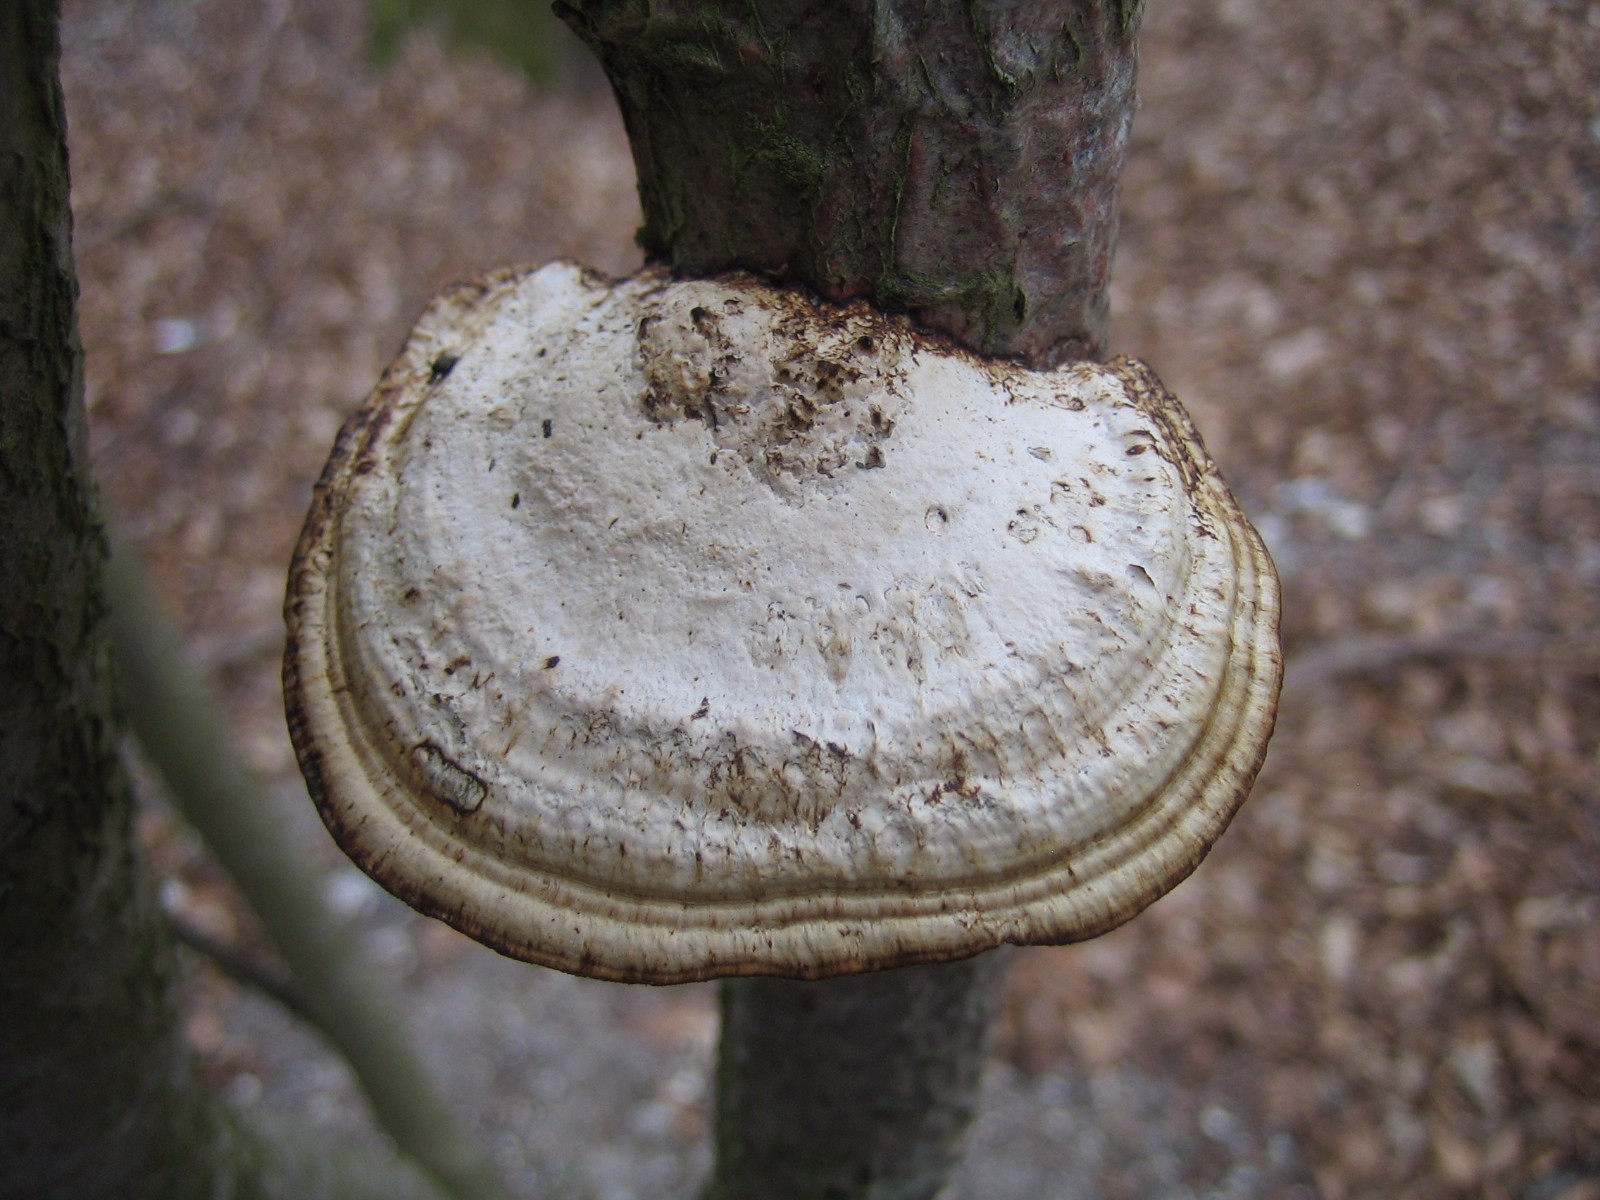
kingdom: Fungi
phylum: Basidiomycota
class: Agaricomycetes
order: Polyporales
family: Polyporaceae
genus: Daedaleopsis
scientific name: Daedaleopsis confragosa
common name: rødmende læderporesvamp
